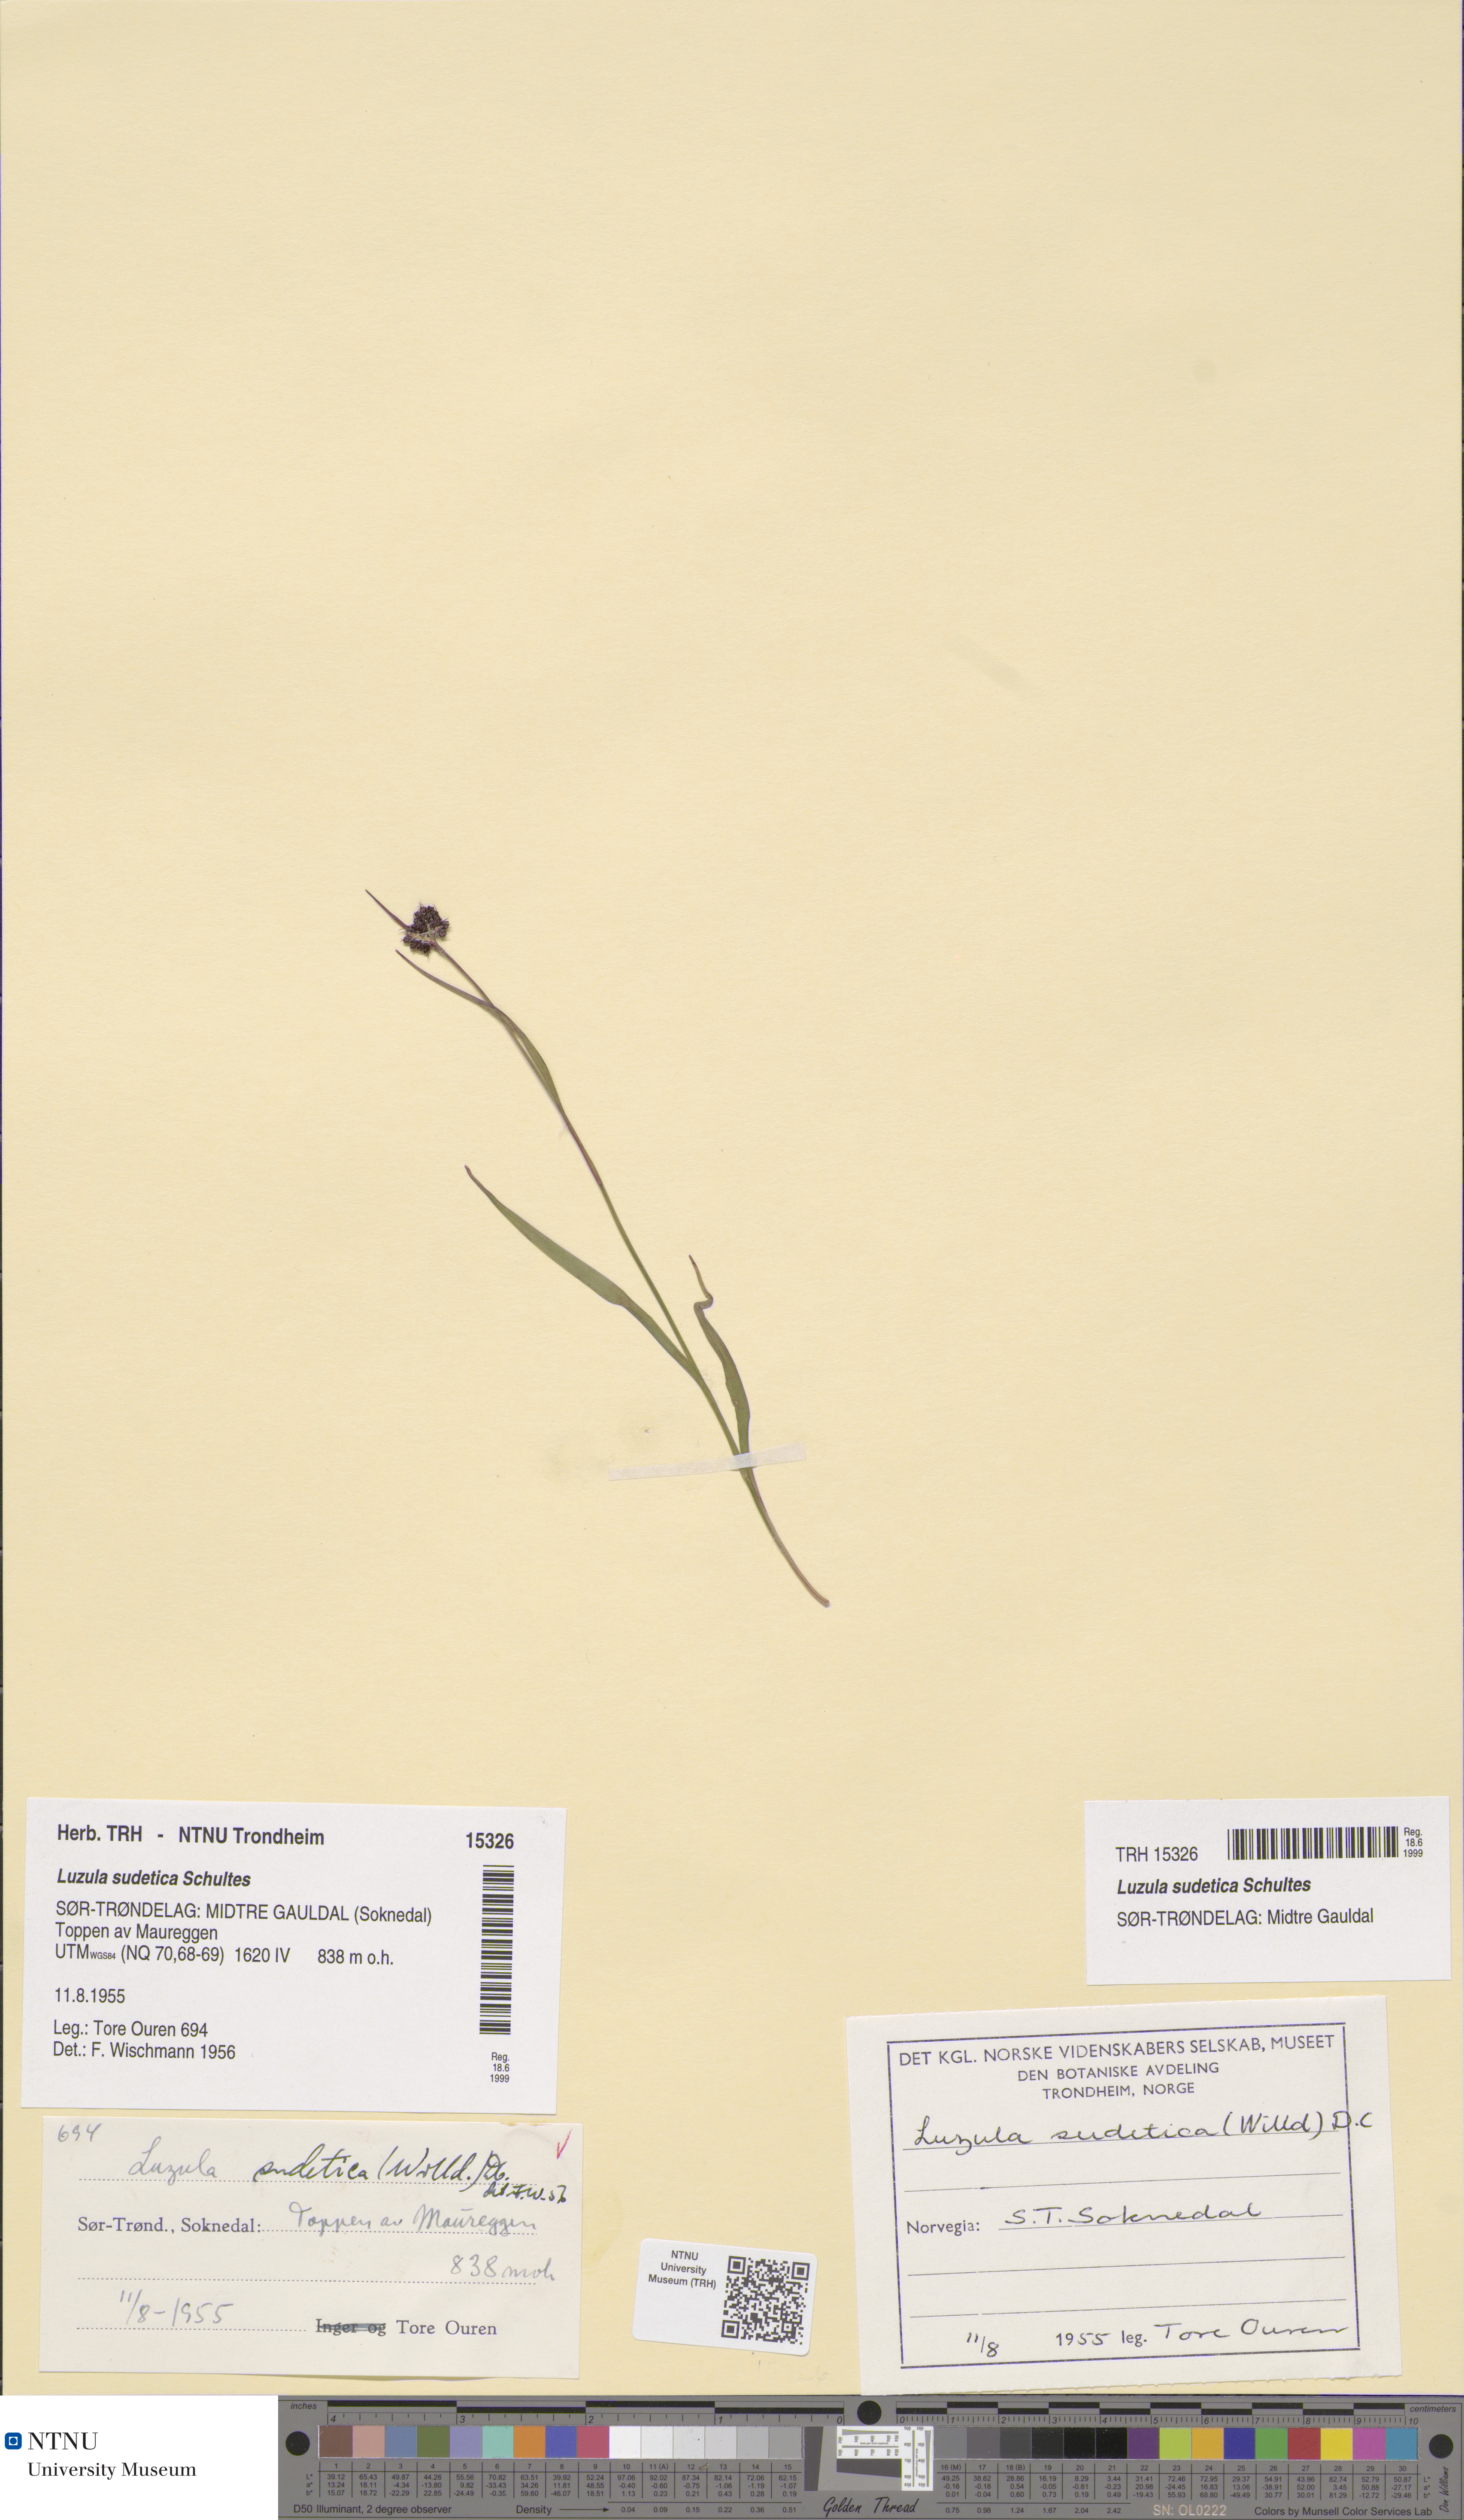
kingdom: Plantae
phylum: Tracheophyta
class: Liliopsida
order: Poales
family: Juncaceae
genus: Luzula
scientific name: Luzula sudetica
